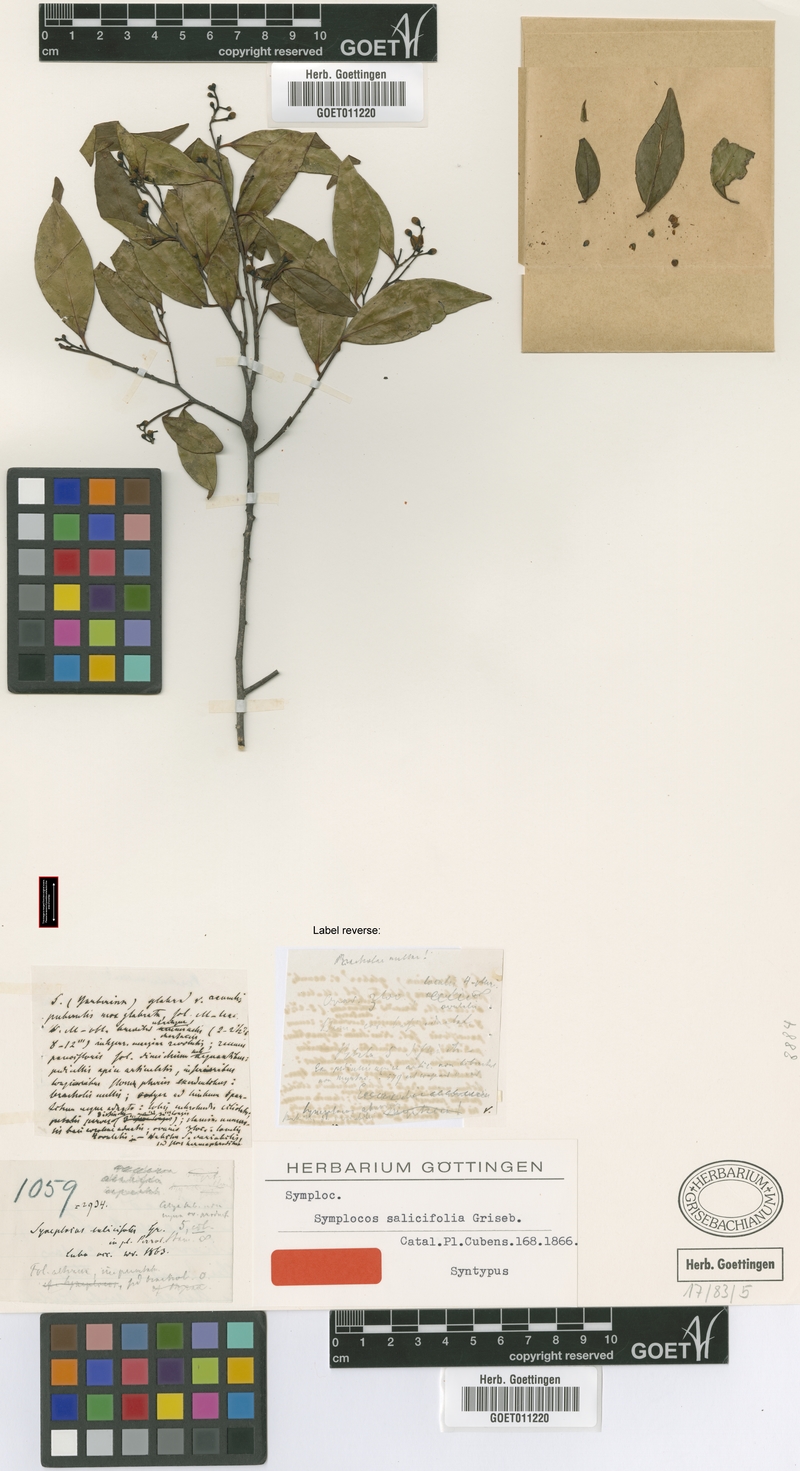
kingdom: Plantae
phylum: Tracheophyta
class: Magnoliopsida
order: Ericales
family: Symplocaceae
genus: Symplocos
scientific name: Symplocos salicifolia
